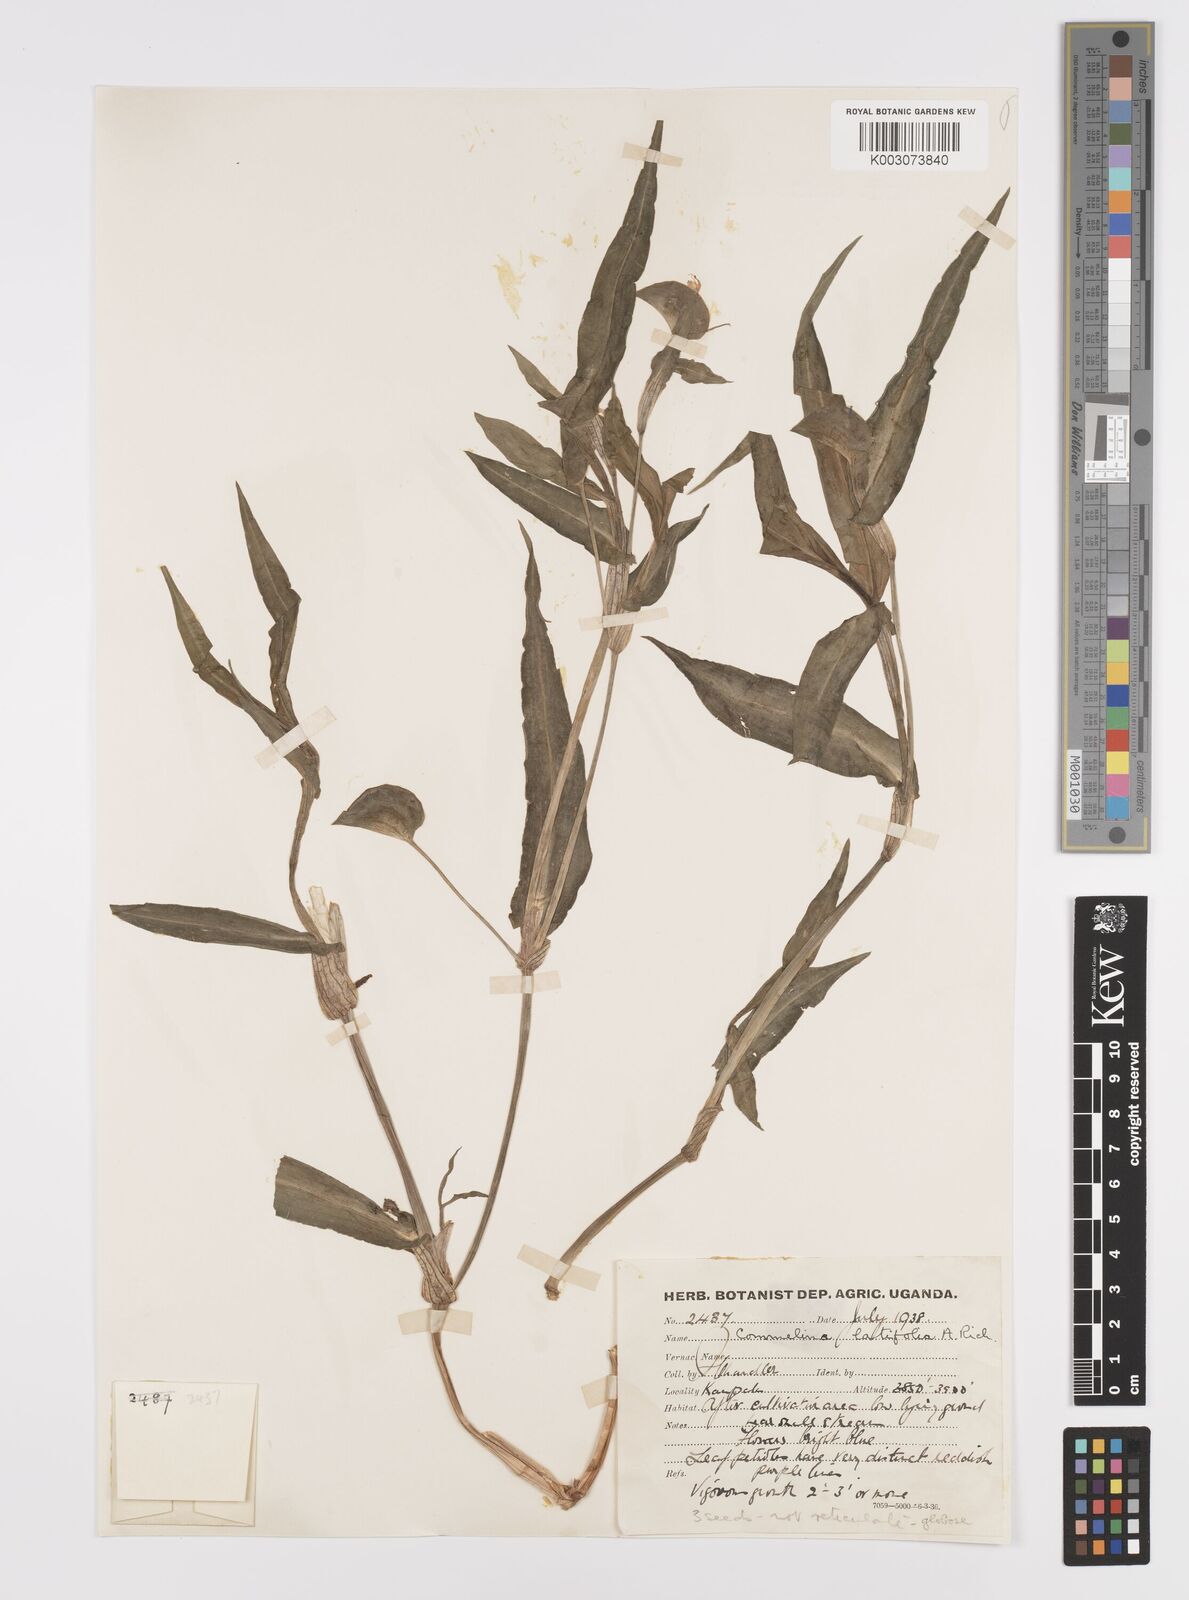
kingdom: Plantae
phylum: Tracheophyta
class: Liliopsida
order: Commelinales
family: Commelinaceae
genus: Commelina
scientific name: Commelina latifolia
